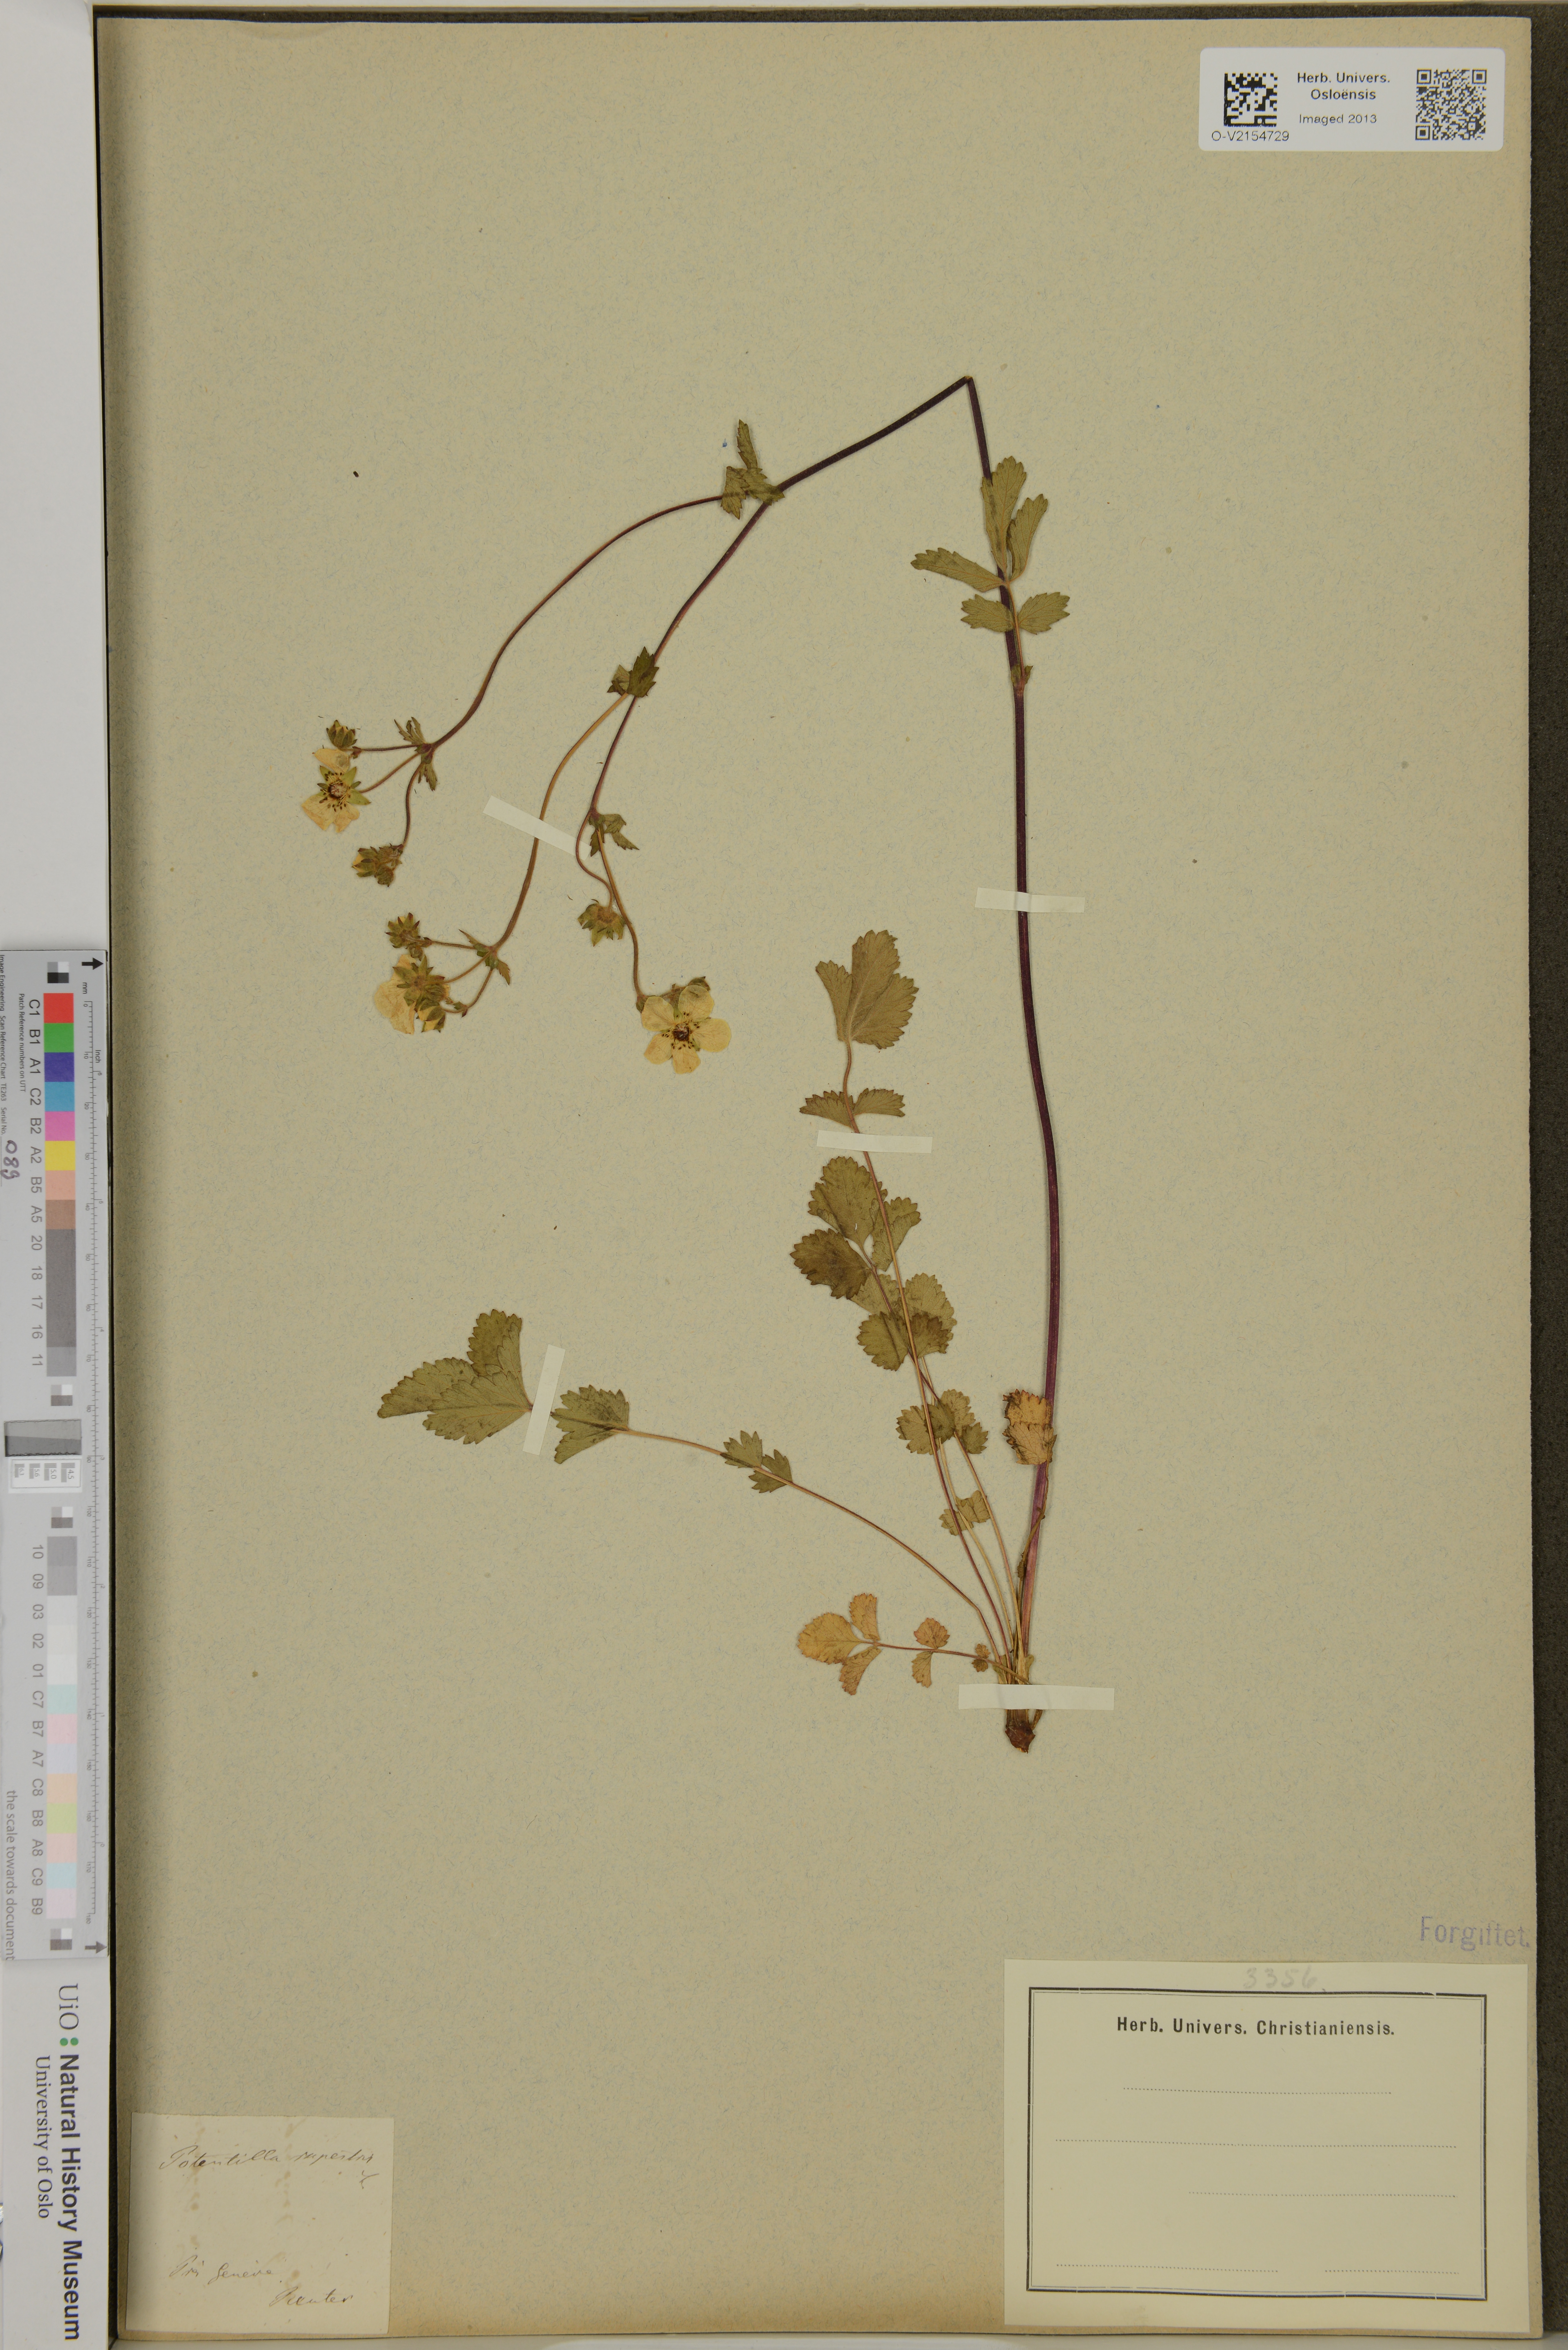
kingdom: Plantae
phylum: Tracheophyta
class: Magnoliopsida
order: Rosales
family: Rosaceae
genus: Drymocallis
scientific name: Drymocallis rupestris
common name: Rock cinquefoil
